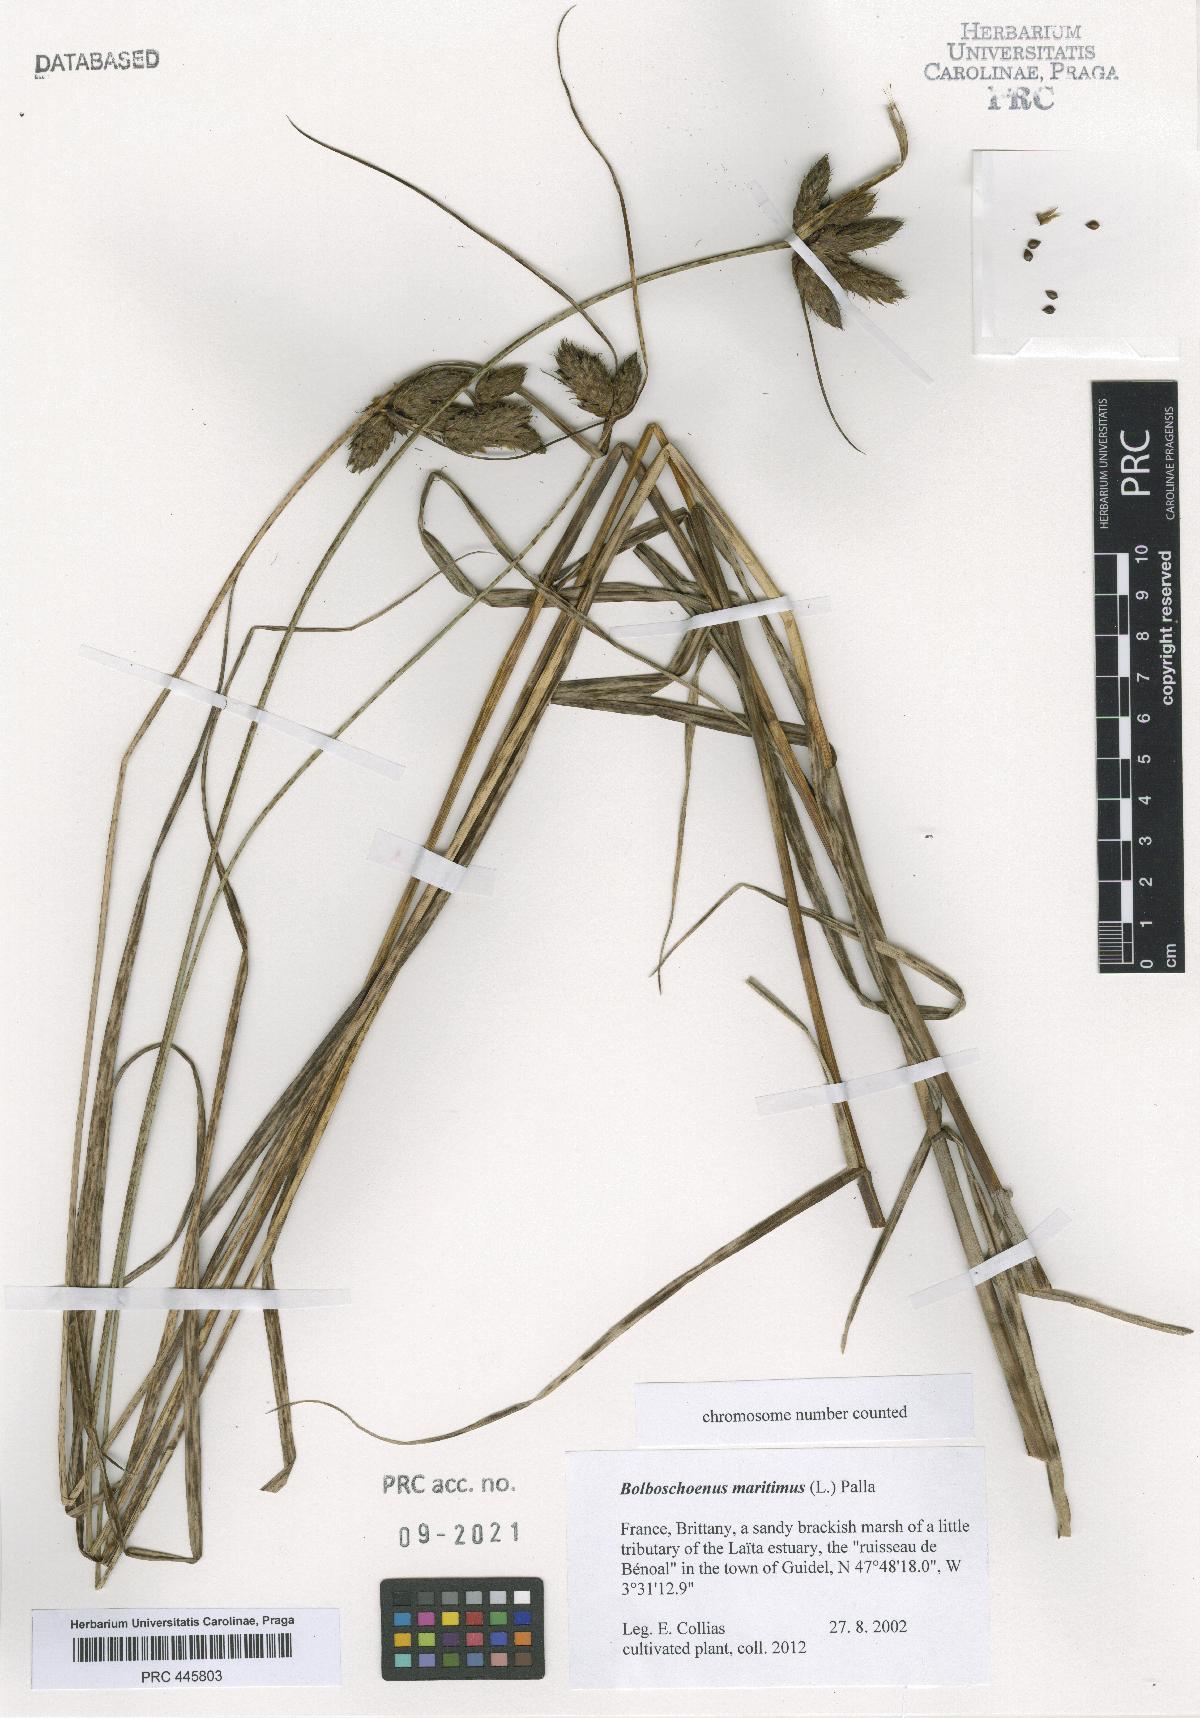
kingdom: Plantae
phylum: Tracheophyta
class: Liliopsida
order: Poales
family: Cyperaceae
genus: Bolboschoenus
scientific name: Bolboschoenus maritimus
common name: Sea club-rush
